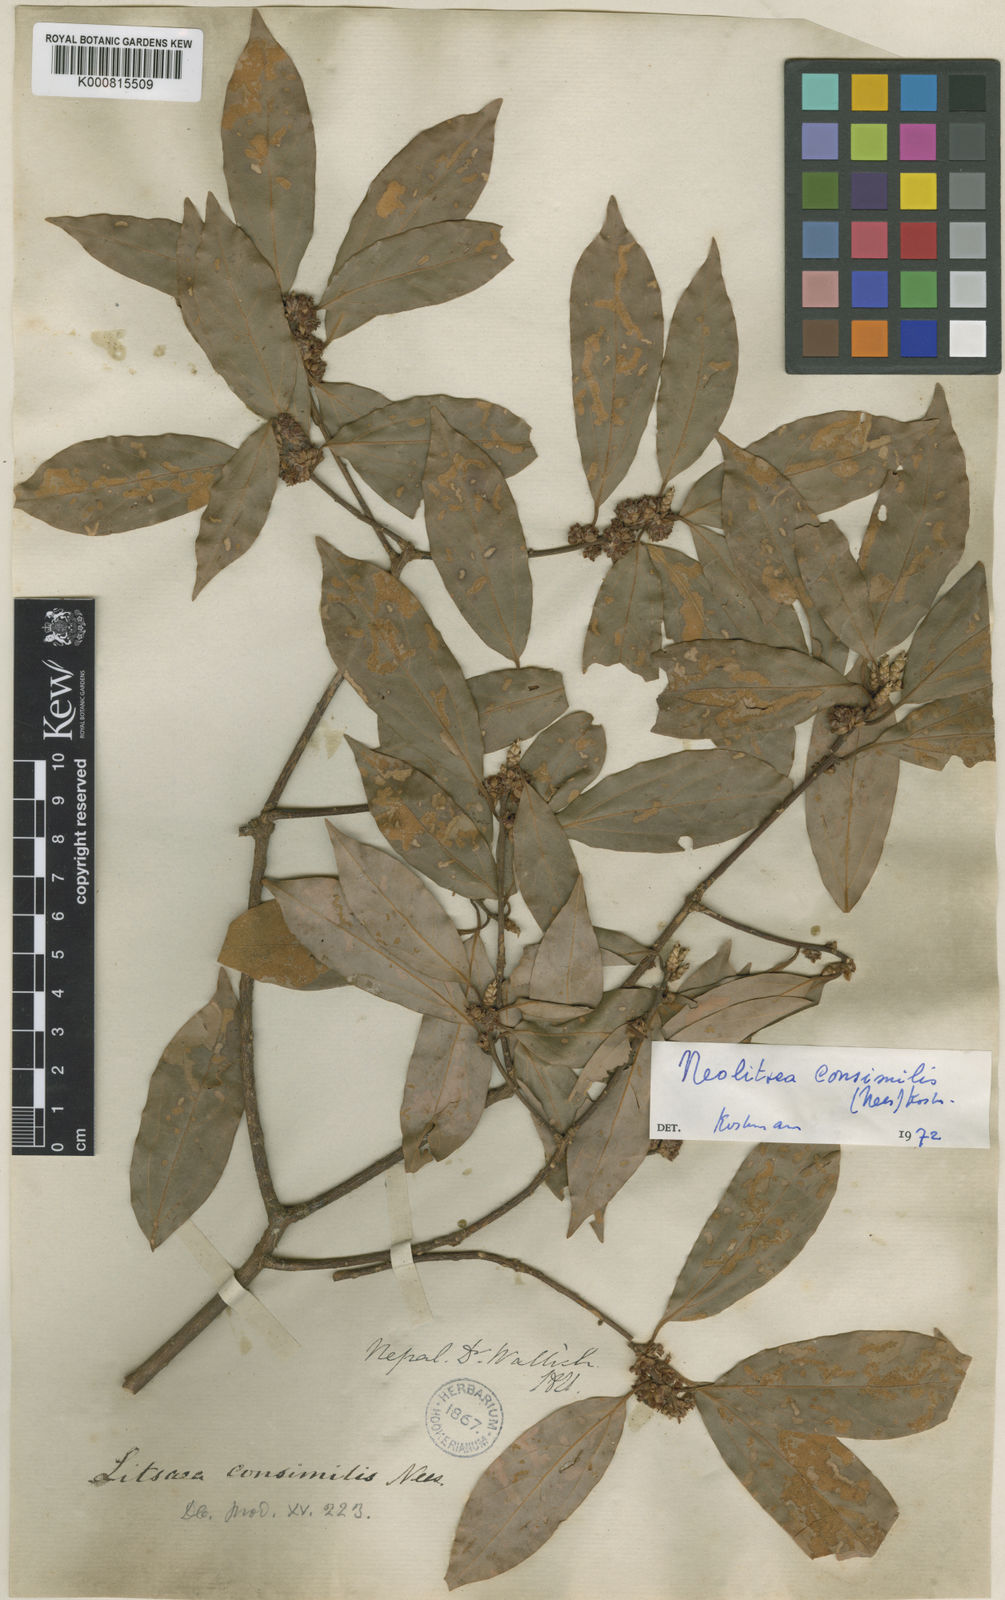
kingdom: Plantae
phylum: Tracheophyta
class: Magnoliopsida
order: Laurales
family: Lauraceae
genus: Neolitsea
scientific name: Neolitsea
